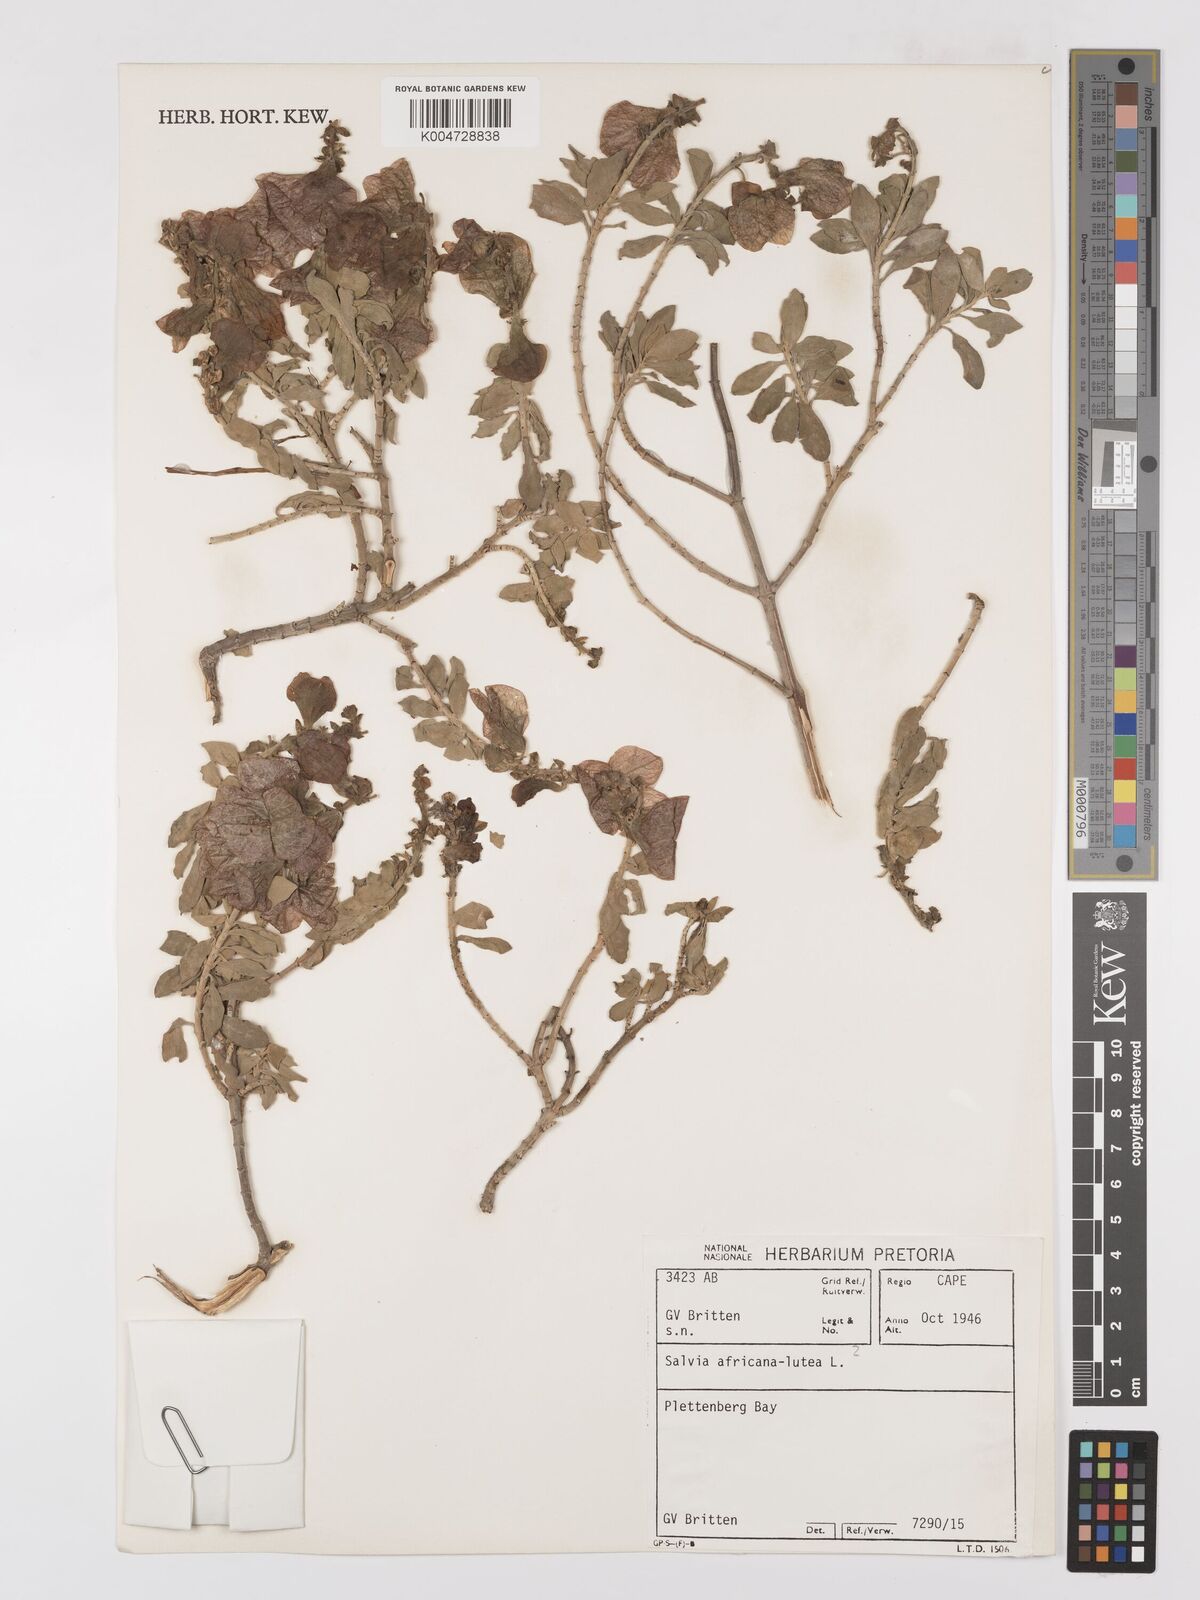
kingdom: Plantae
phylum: Tracheophyta
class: Magnoliopsida
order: Lamiales
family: Lamiaceae
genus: Salvia
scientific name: Salvia aurea
